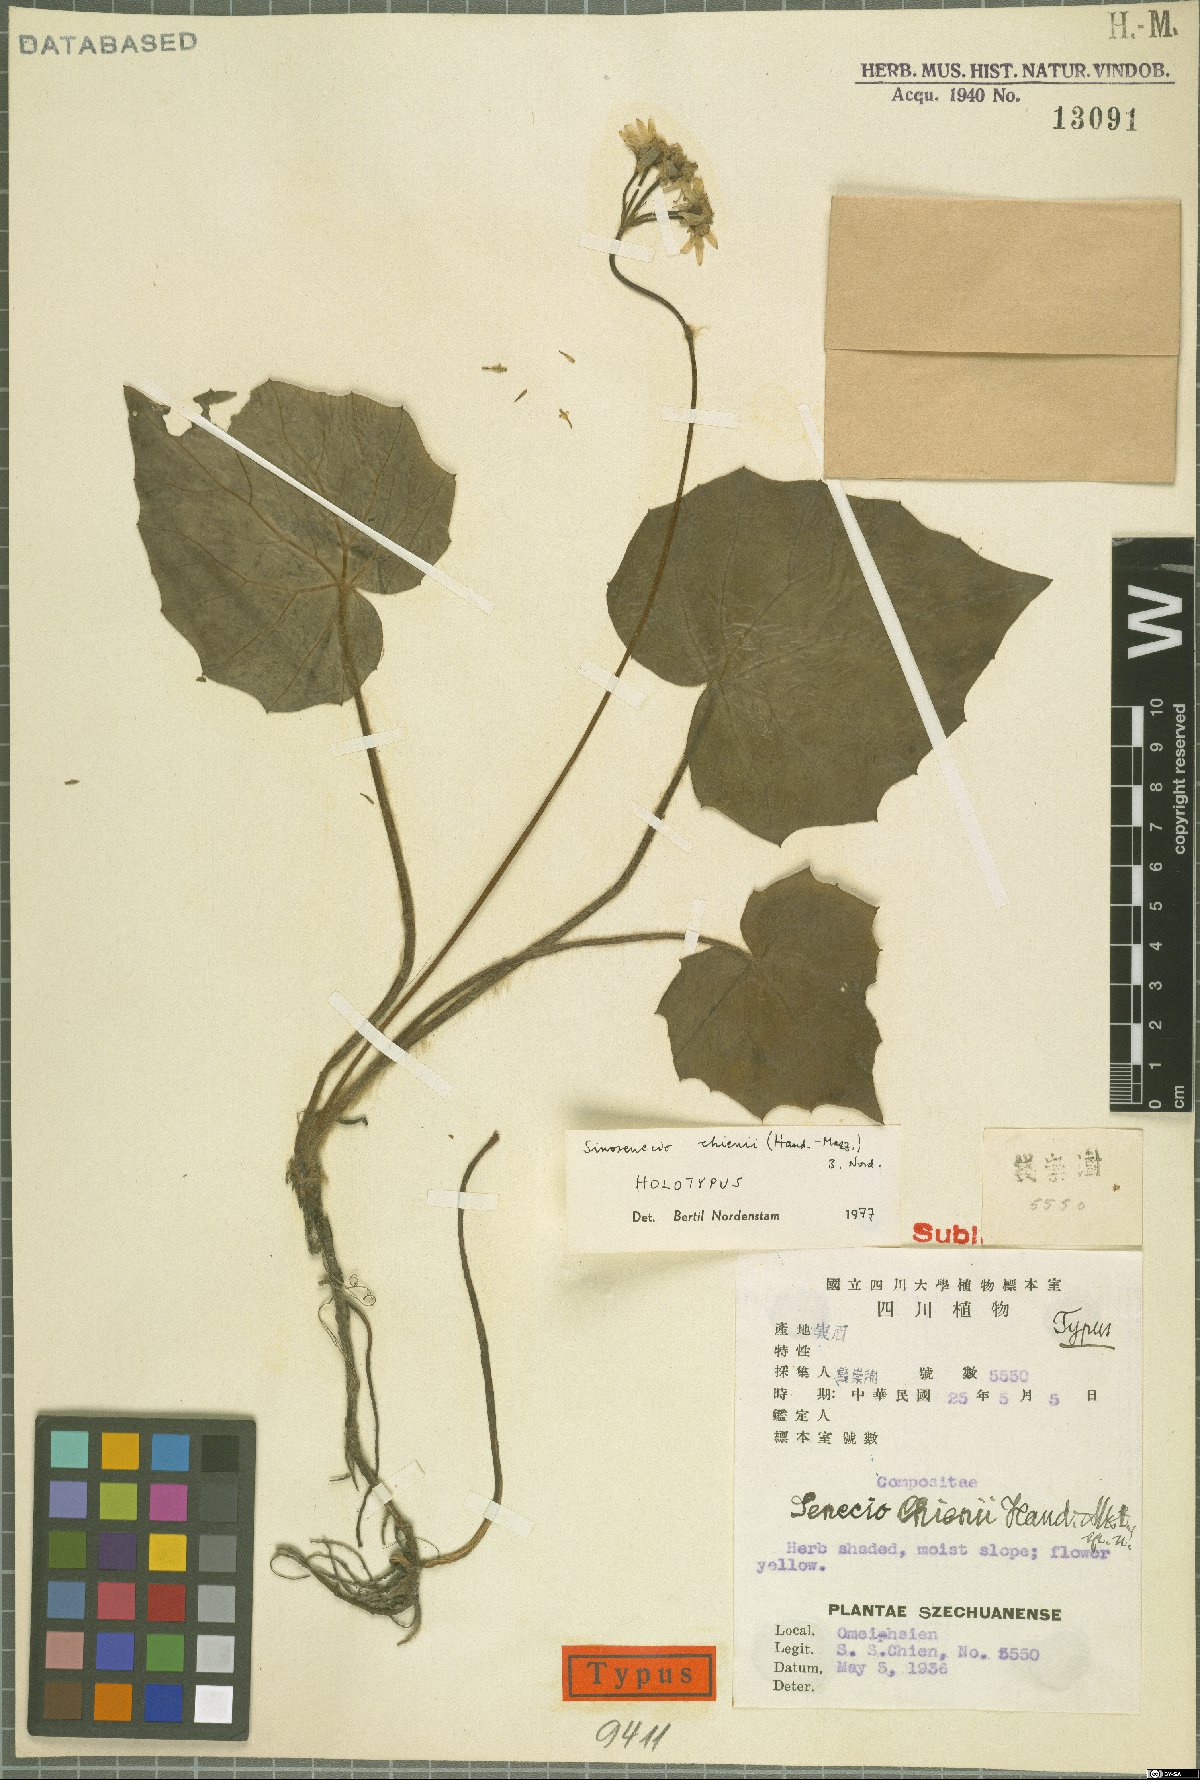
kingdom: Plantae
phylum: Tracheophyta
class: Magnoliopsida
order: Asterales
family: Asteraceae
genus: Sinosenecio
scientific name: Sinosenecio chienii
